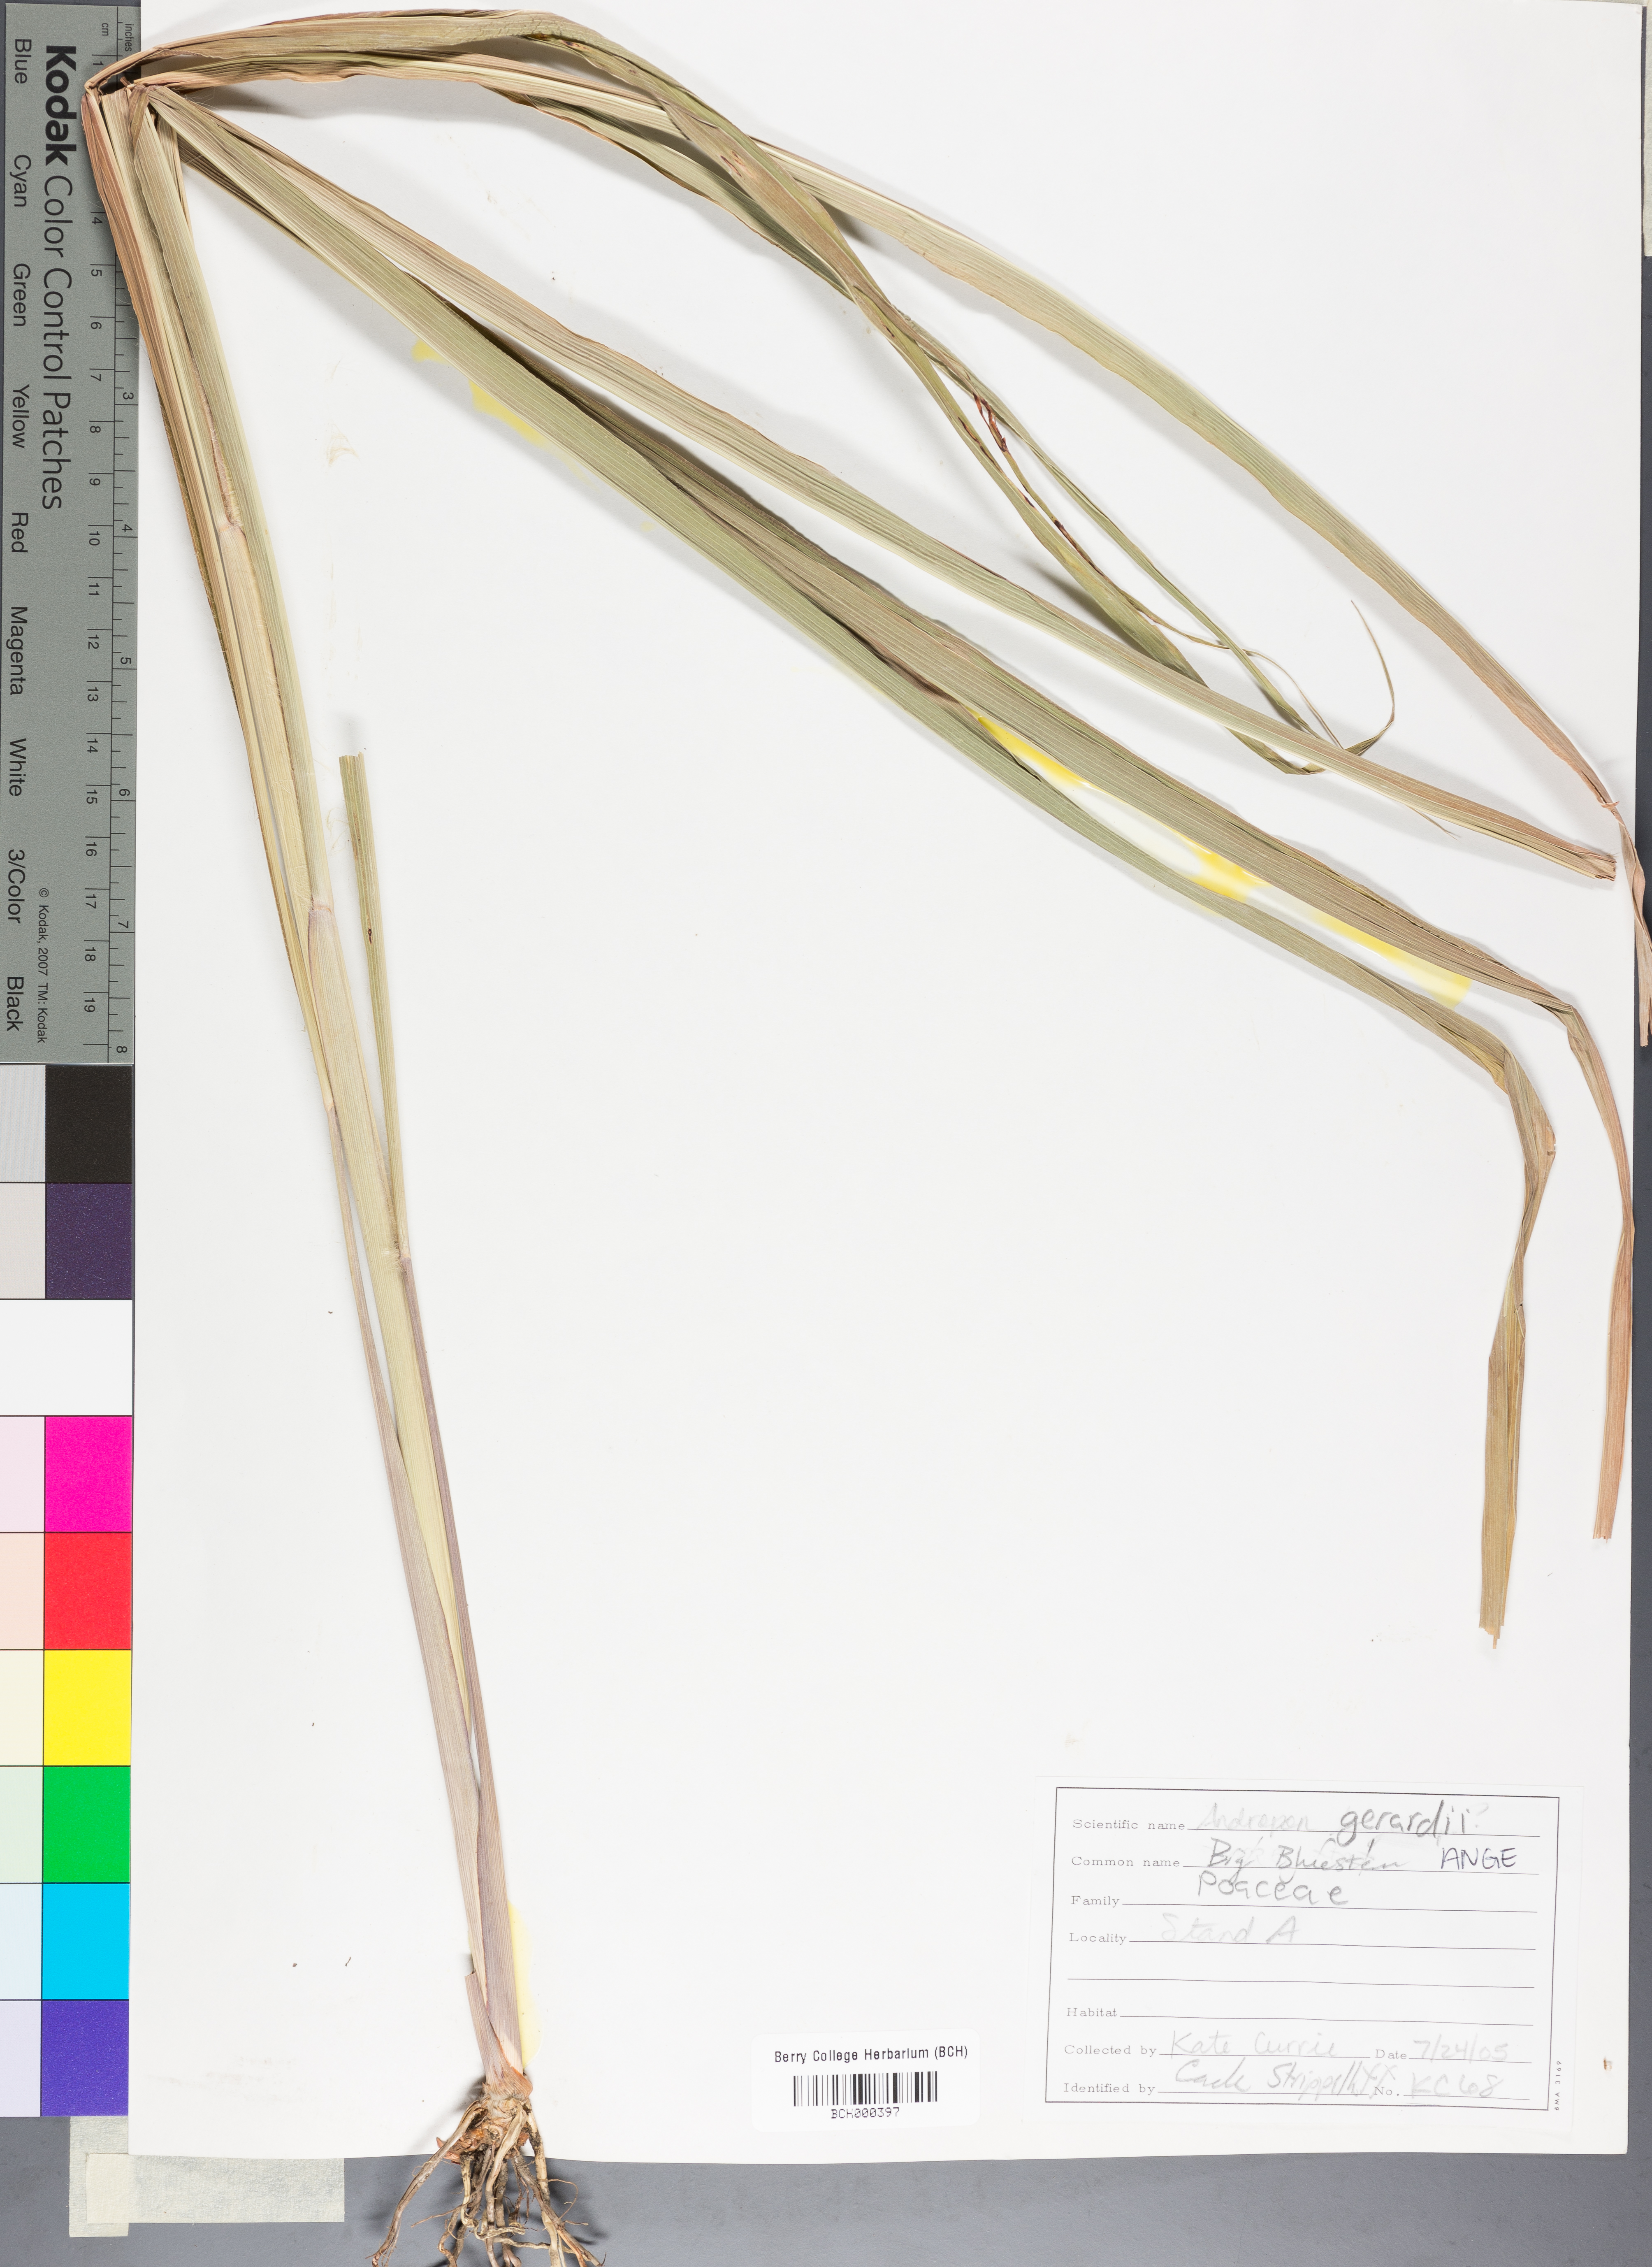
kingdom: Plantae
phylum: Tracheophyta
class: Liliopsida
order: Poales
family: Poaceae
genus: Andropogon
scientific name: Andropogon gerardi
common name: Big bluestem
